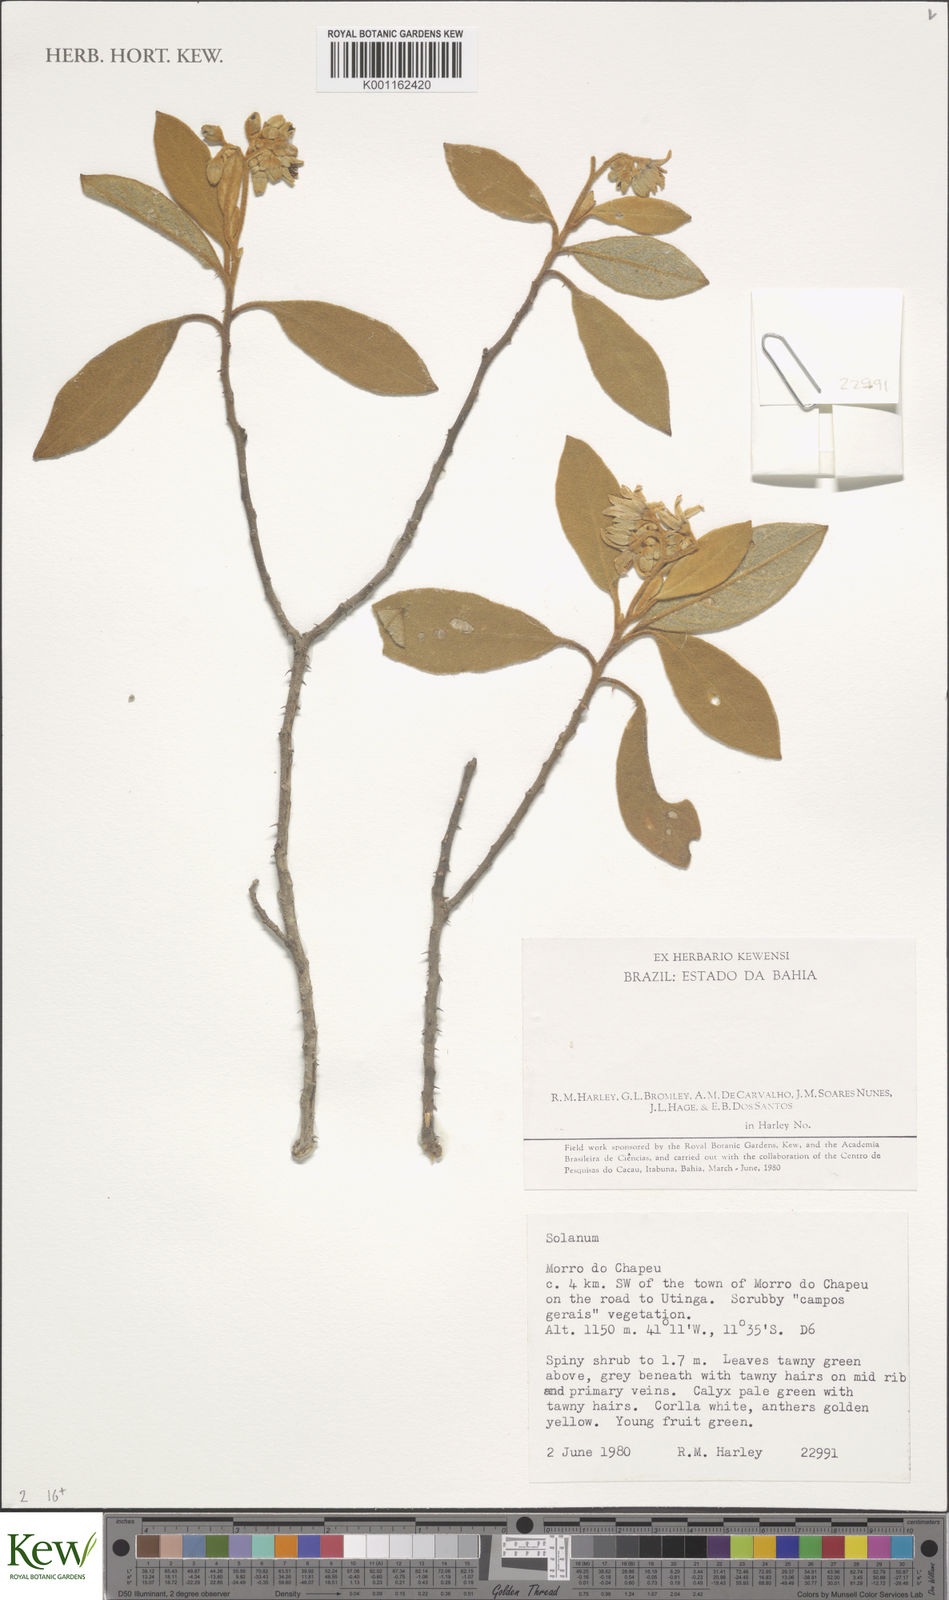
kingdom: Plantae
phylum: Tracheophyta
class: Magnoliopsida
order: Solanales
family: Solanaceae
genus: Solanum
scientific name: Solanum rhytidoandrum
